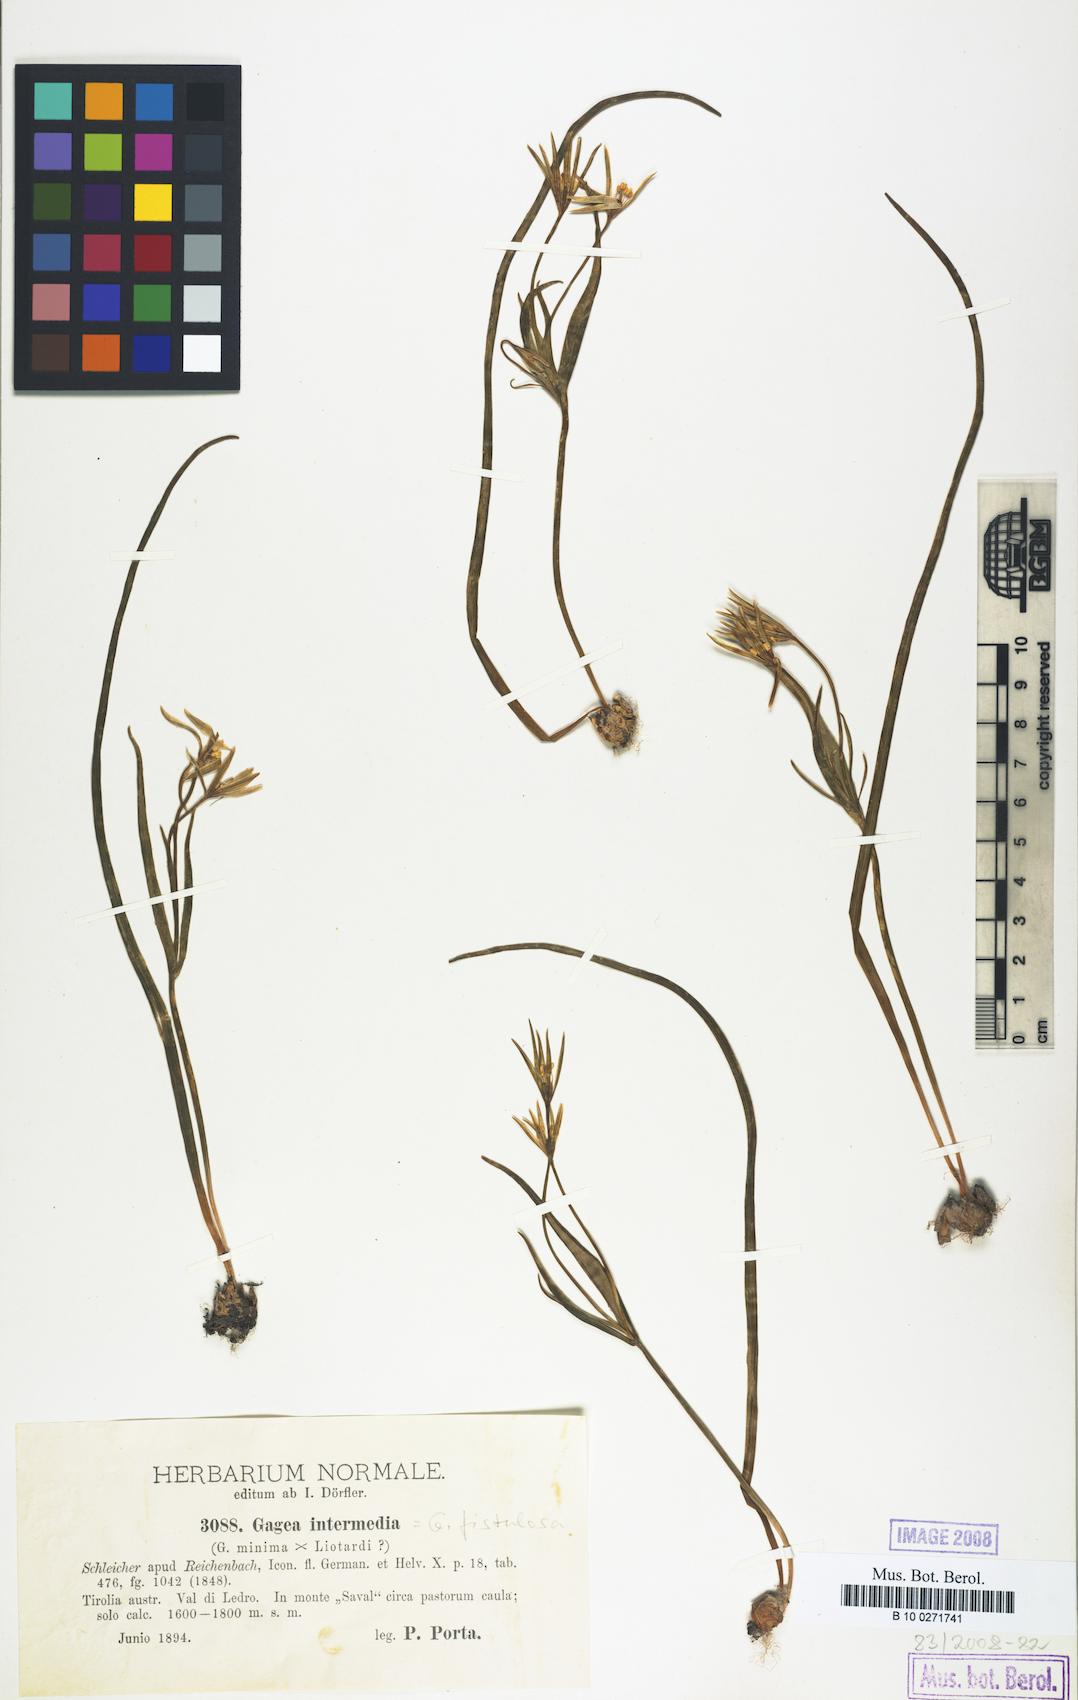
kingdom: Plantae
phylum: Tracheophyta
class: Liliopsida
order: Liliales
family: Liliaceae
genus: Gagea
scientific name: Gagea bohemica
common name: Early star-of-bethlehem
